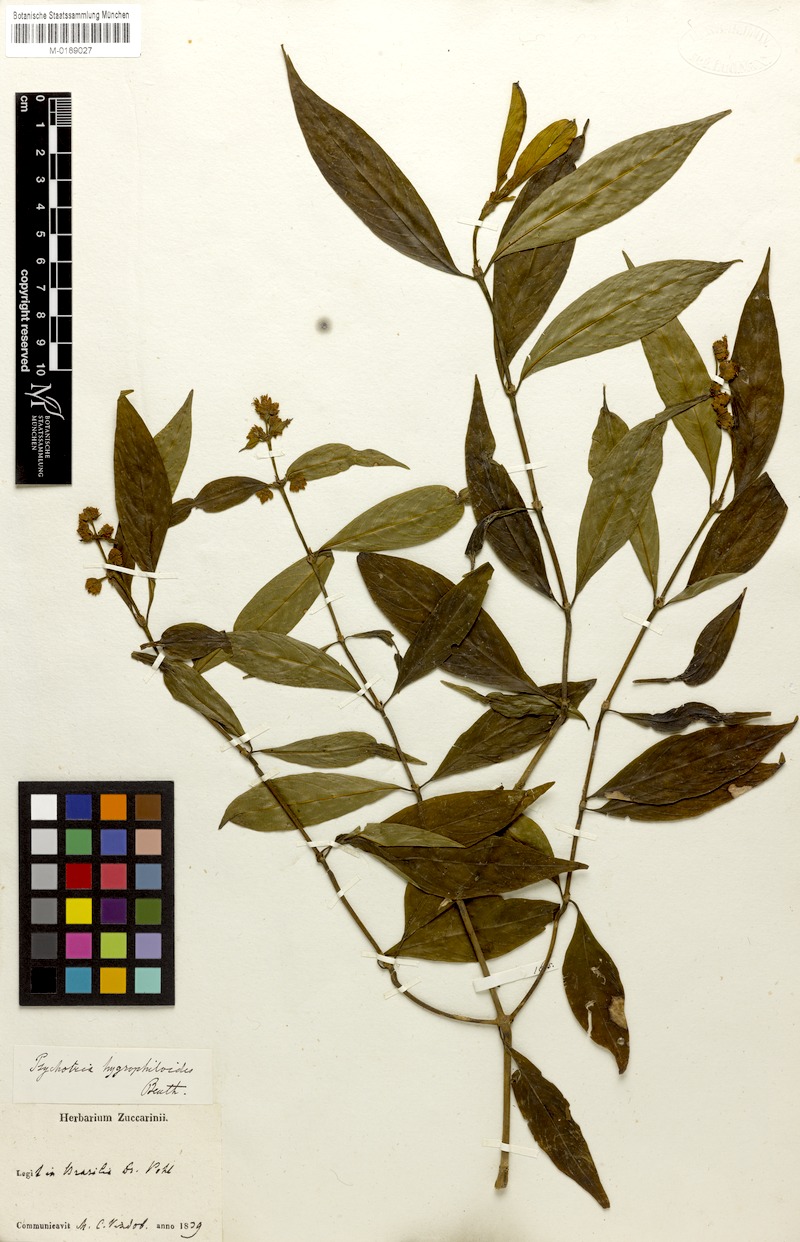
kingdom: Plantae
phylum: Tracheophyta
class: Magnoliopsida
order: Gentianales
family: Rubiaceae
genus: Psychotria
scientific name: Psychotria stachyoides
